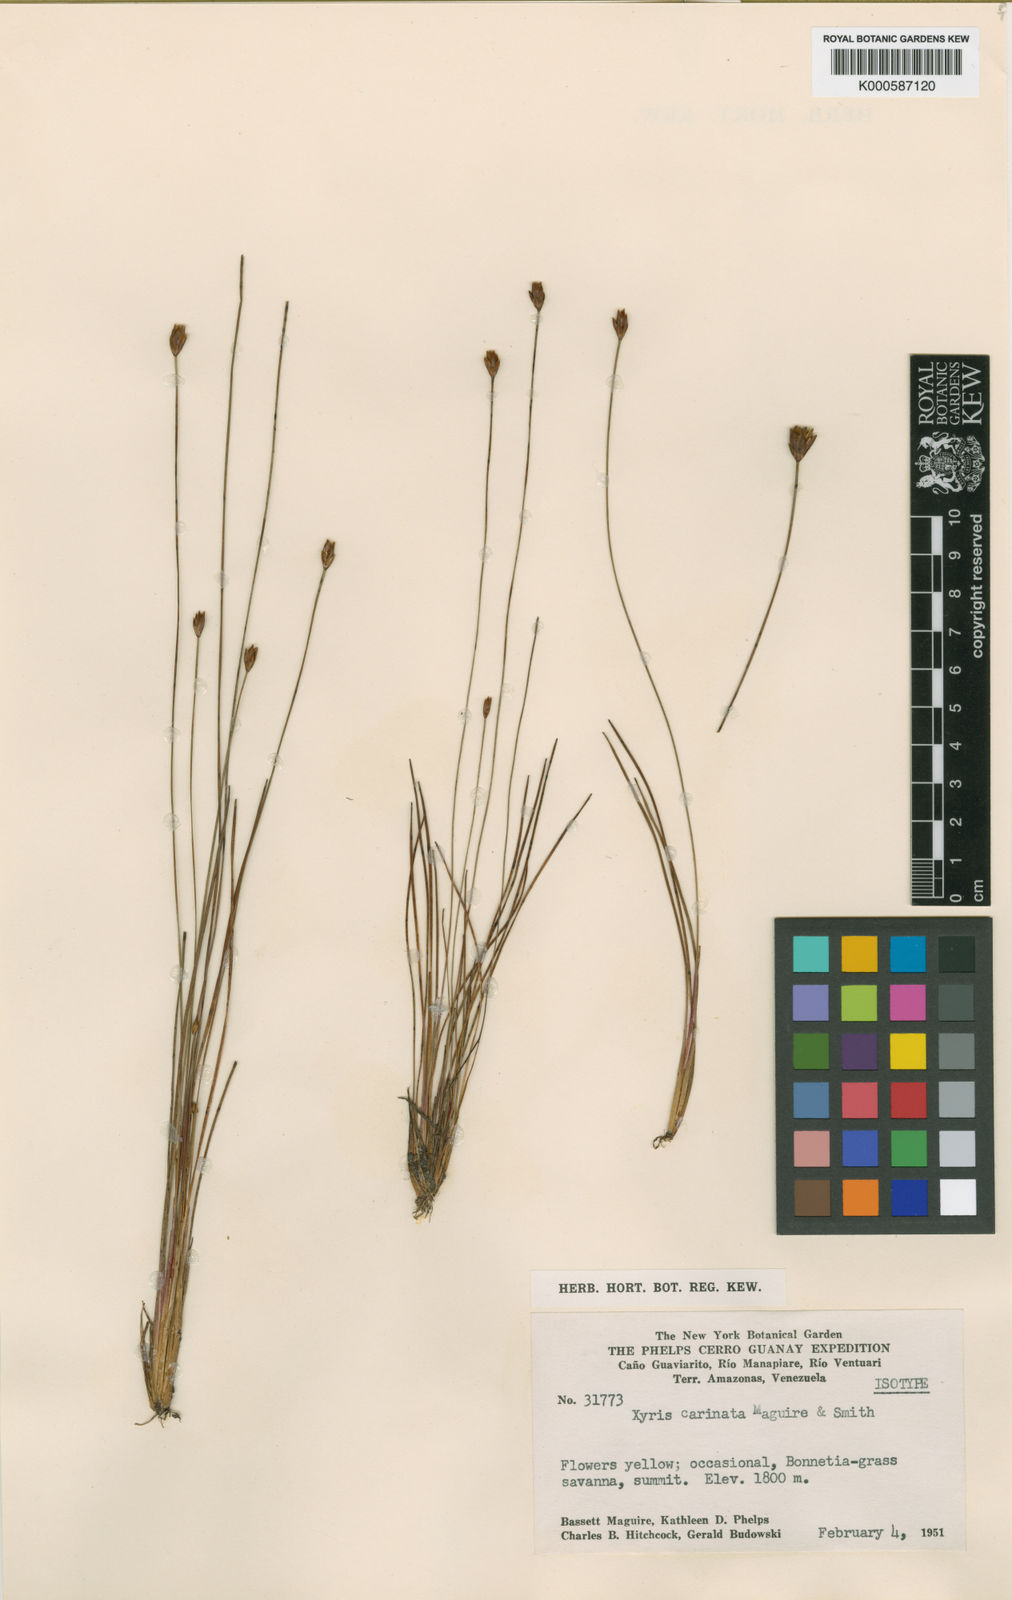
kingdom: Plantae
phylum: Tracheophyta
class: Liliopsida
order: Poales
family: Xyridaceae
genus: Xyris
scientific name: Xyris carinata
